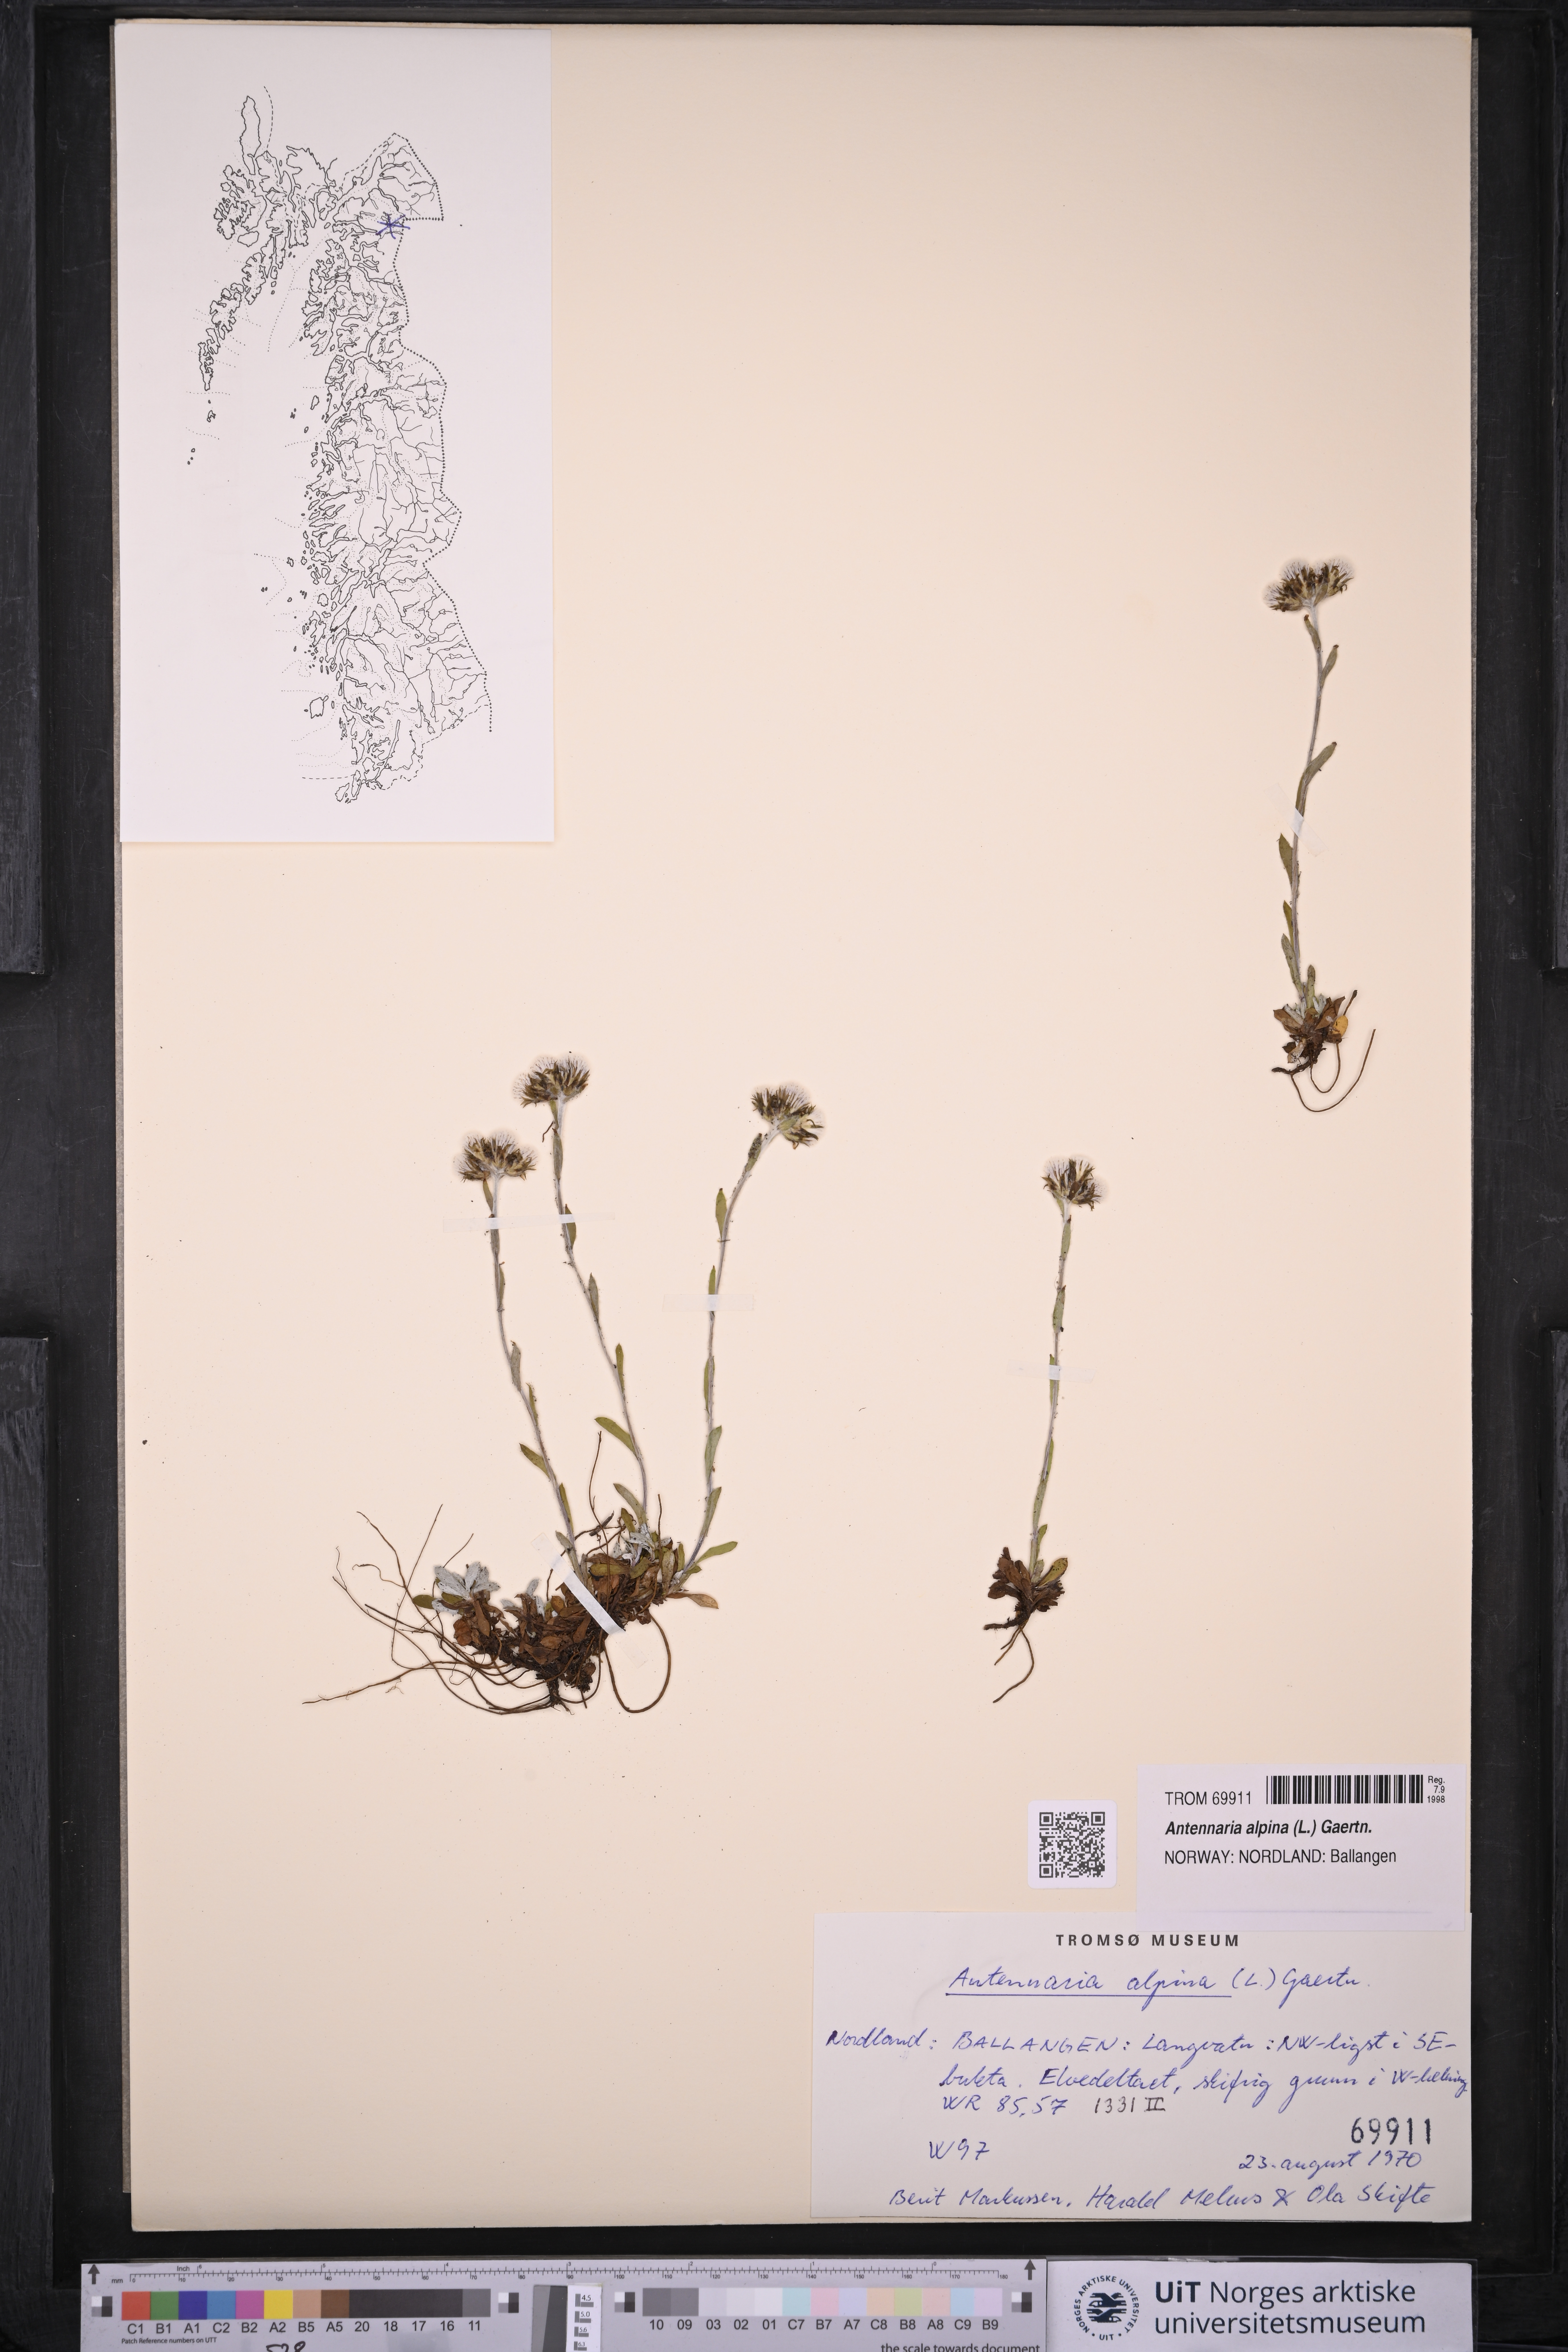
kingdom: Plantae
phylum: Tracheophyta
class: Magnoliopsida
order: Asterales
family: Asteraceae
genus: Antennaria
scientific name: Antennaria alpina
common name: Alpine pussytoes
